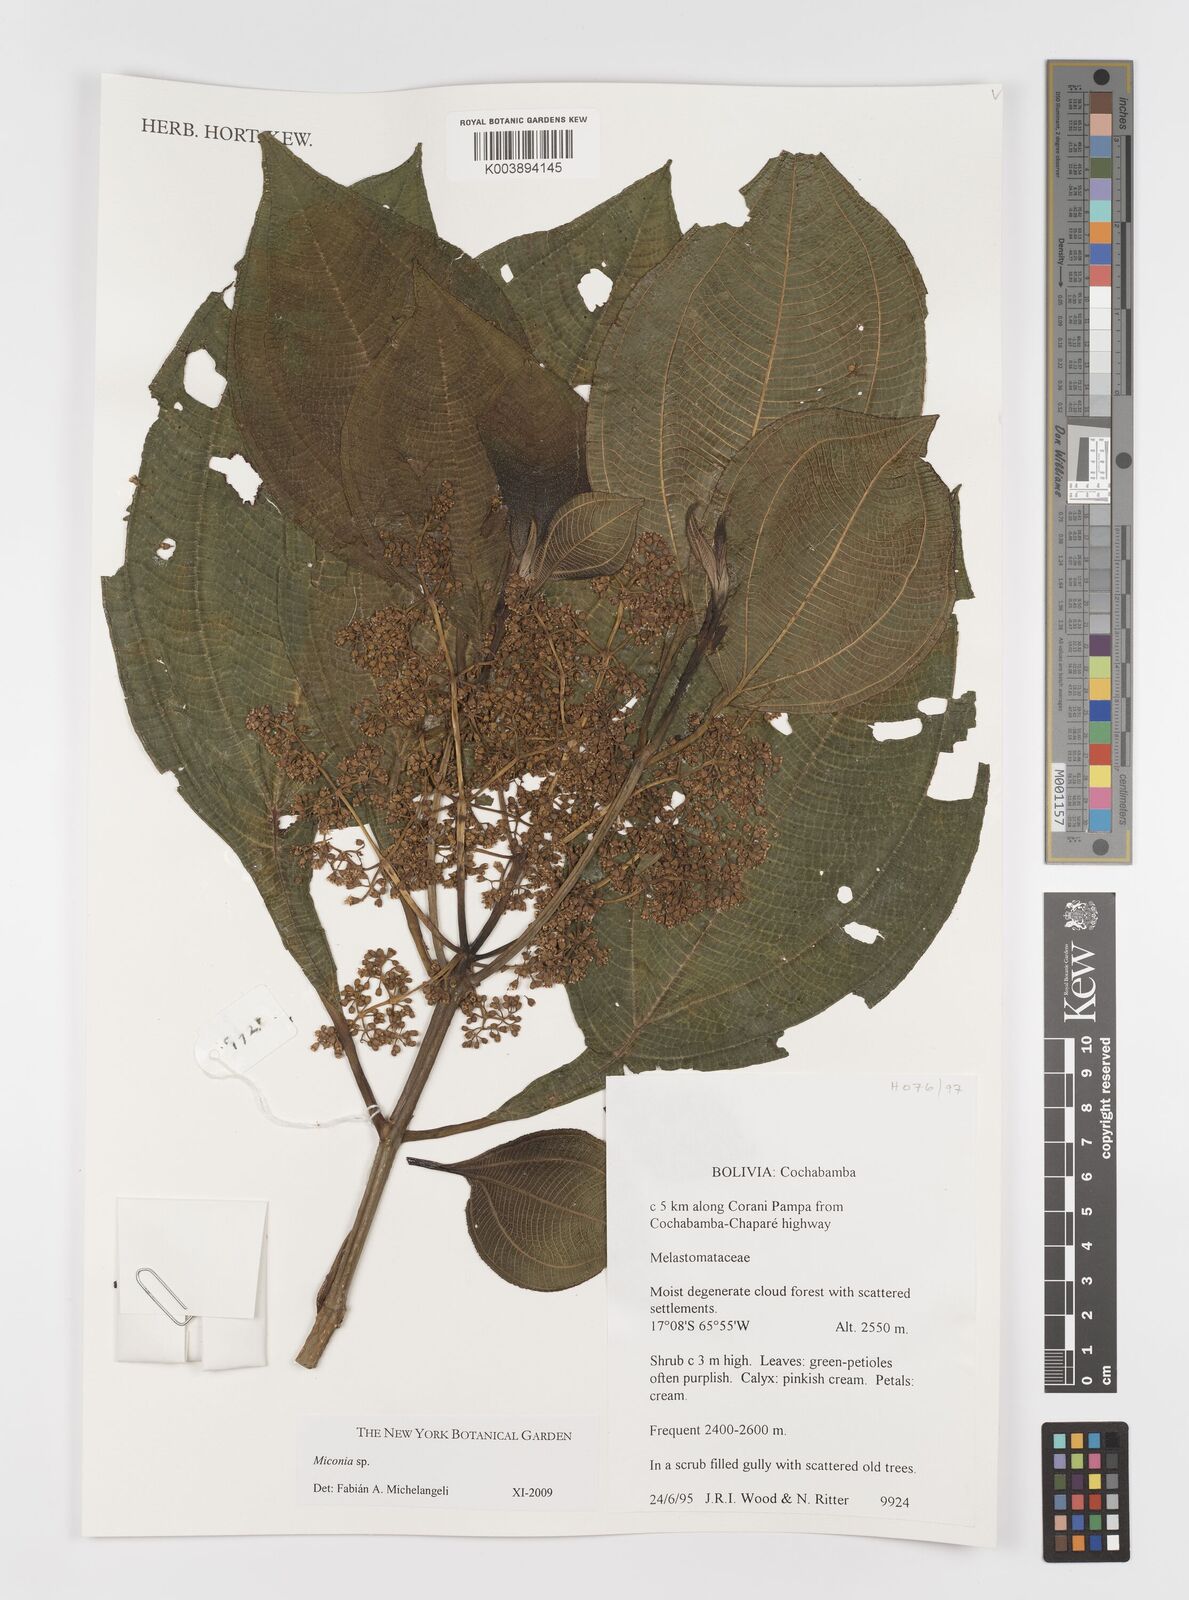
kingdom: Plantae
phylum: Tracheophyta
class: Magnoliopsida
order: Myrtales
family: Melastomataceae
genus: Miconia
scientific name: Miconia
